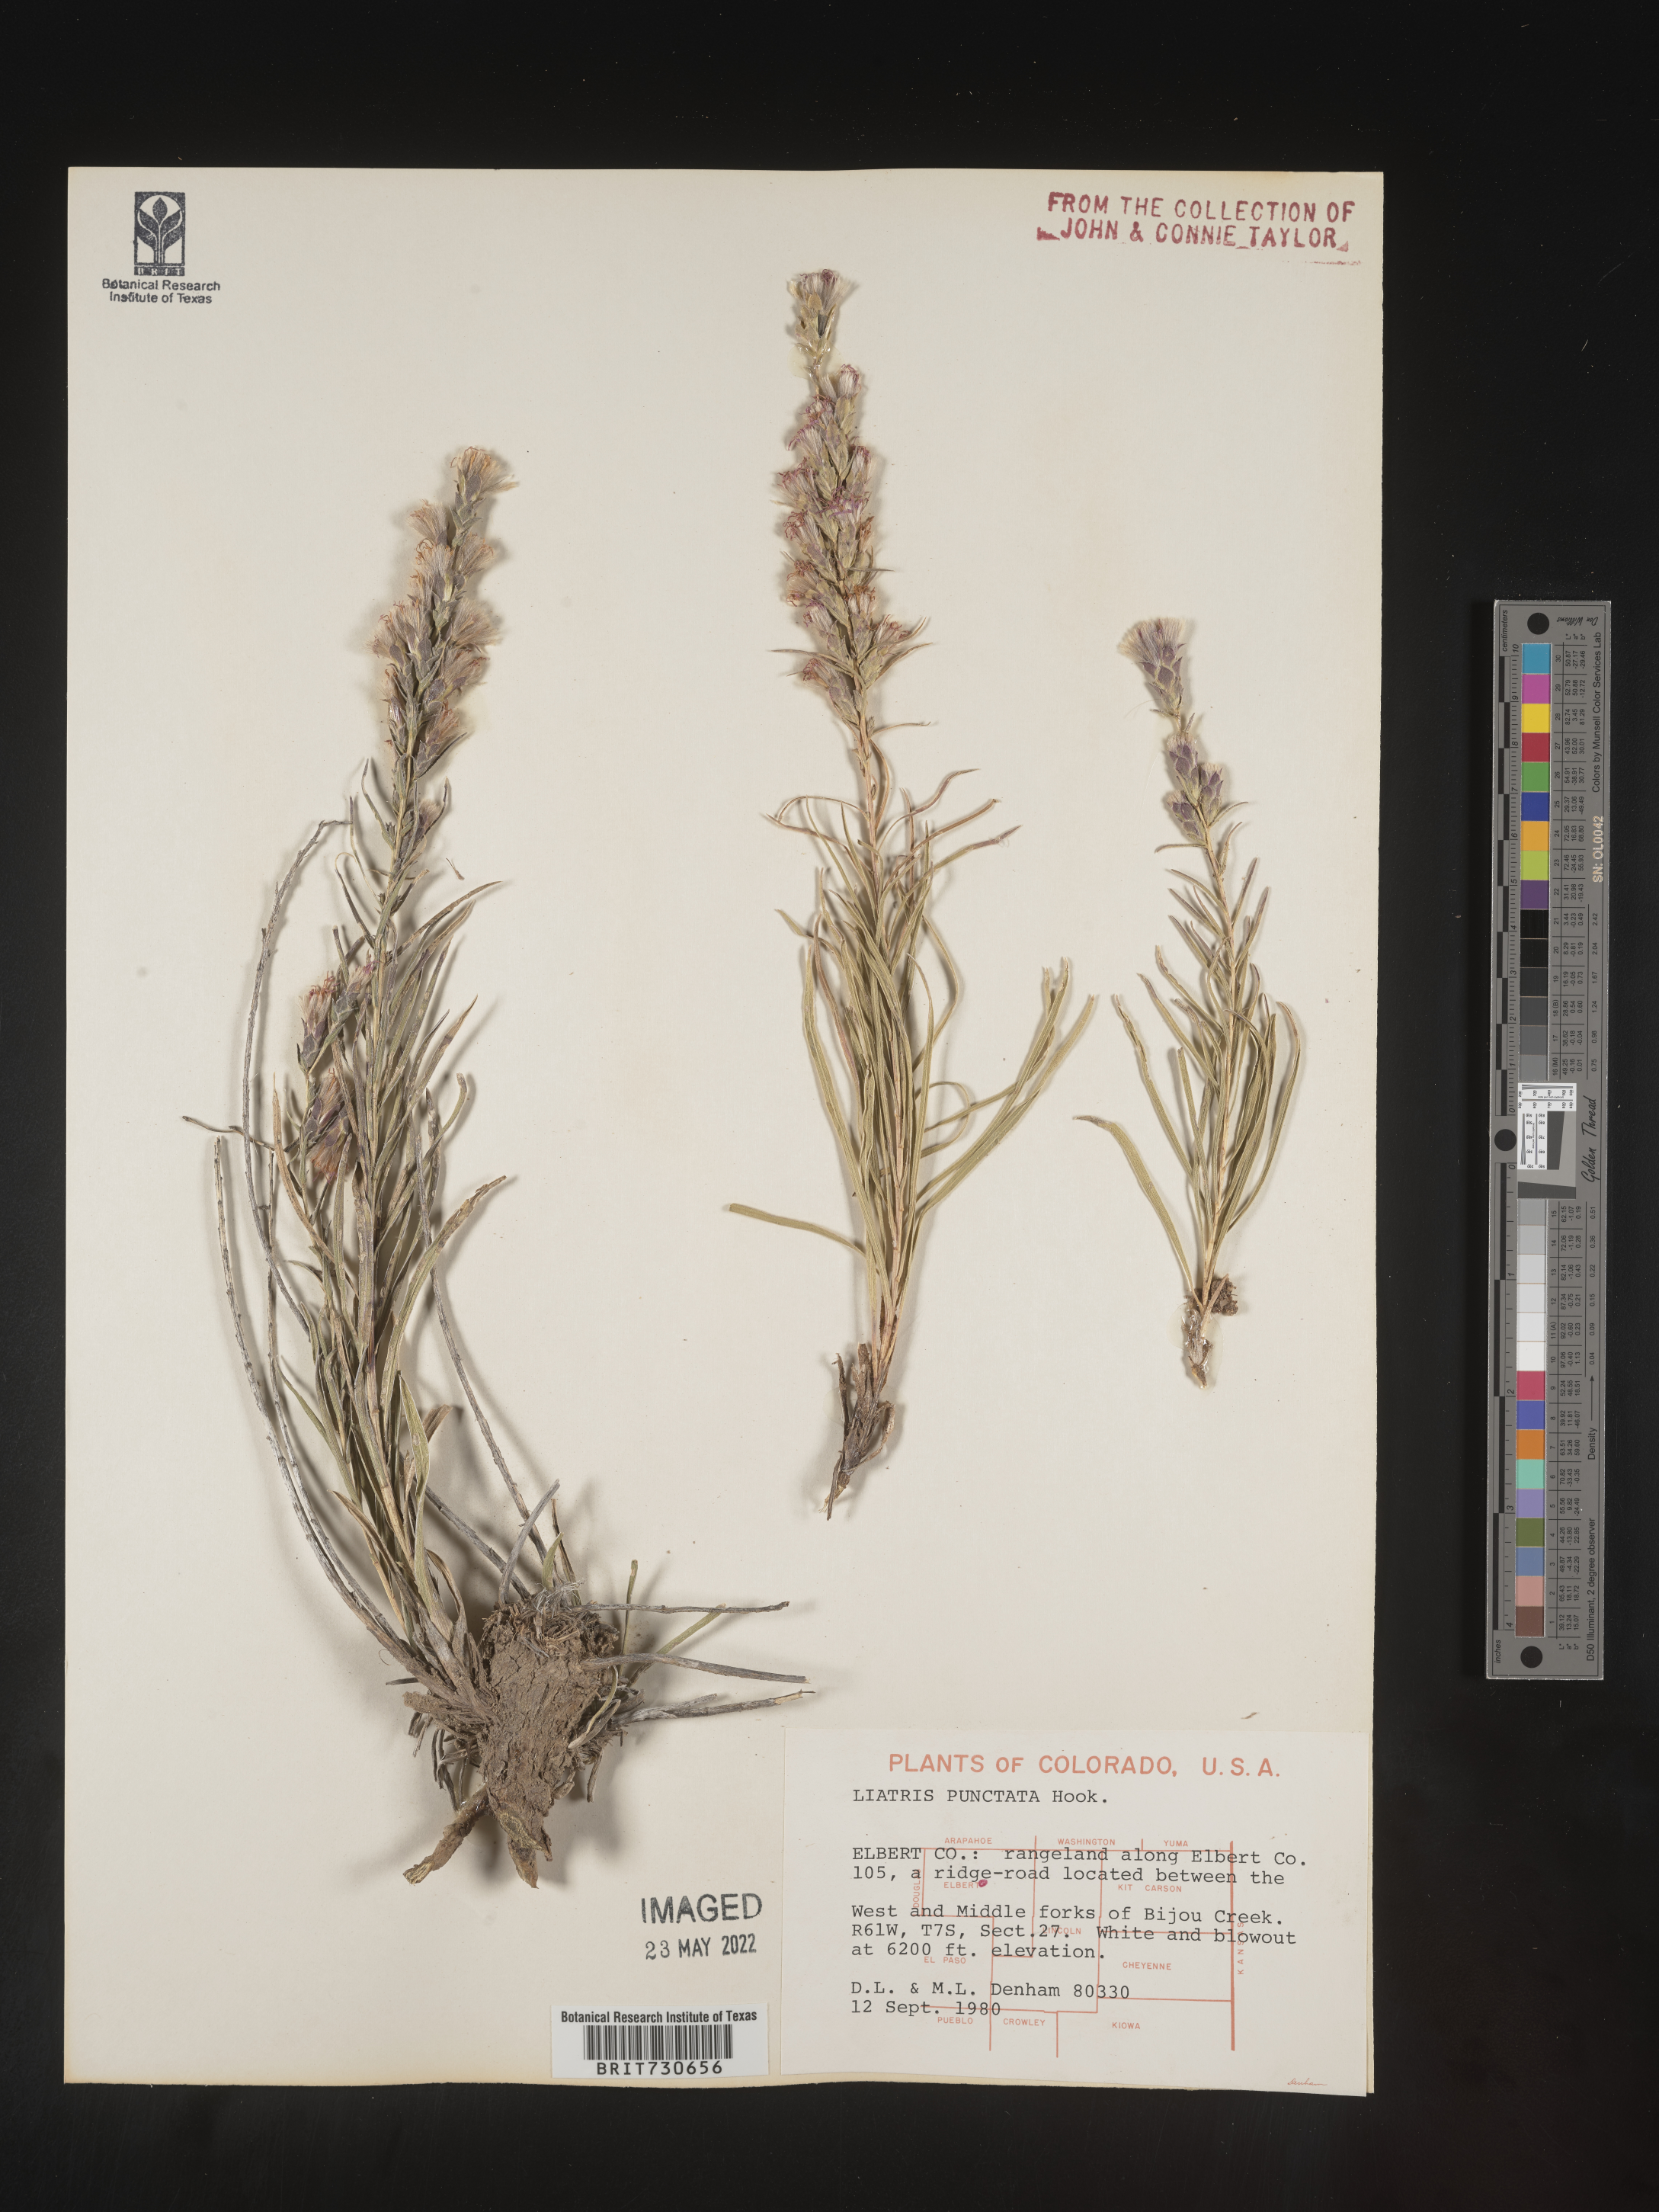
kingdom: Plantae
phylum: Tracheophyta
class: Magnoliopsida
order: Asterales
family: Asteraceae
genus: Liatris
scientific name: Liatris punctata
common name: Dotted gayfeather
